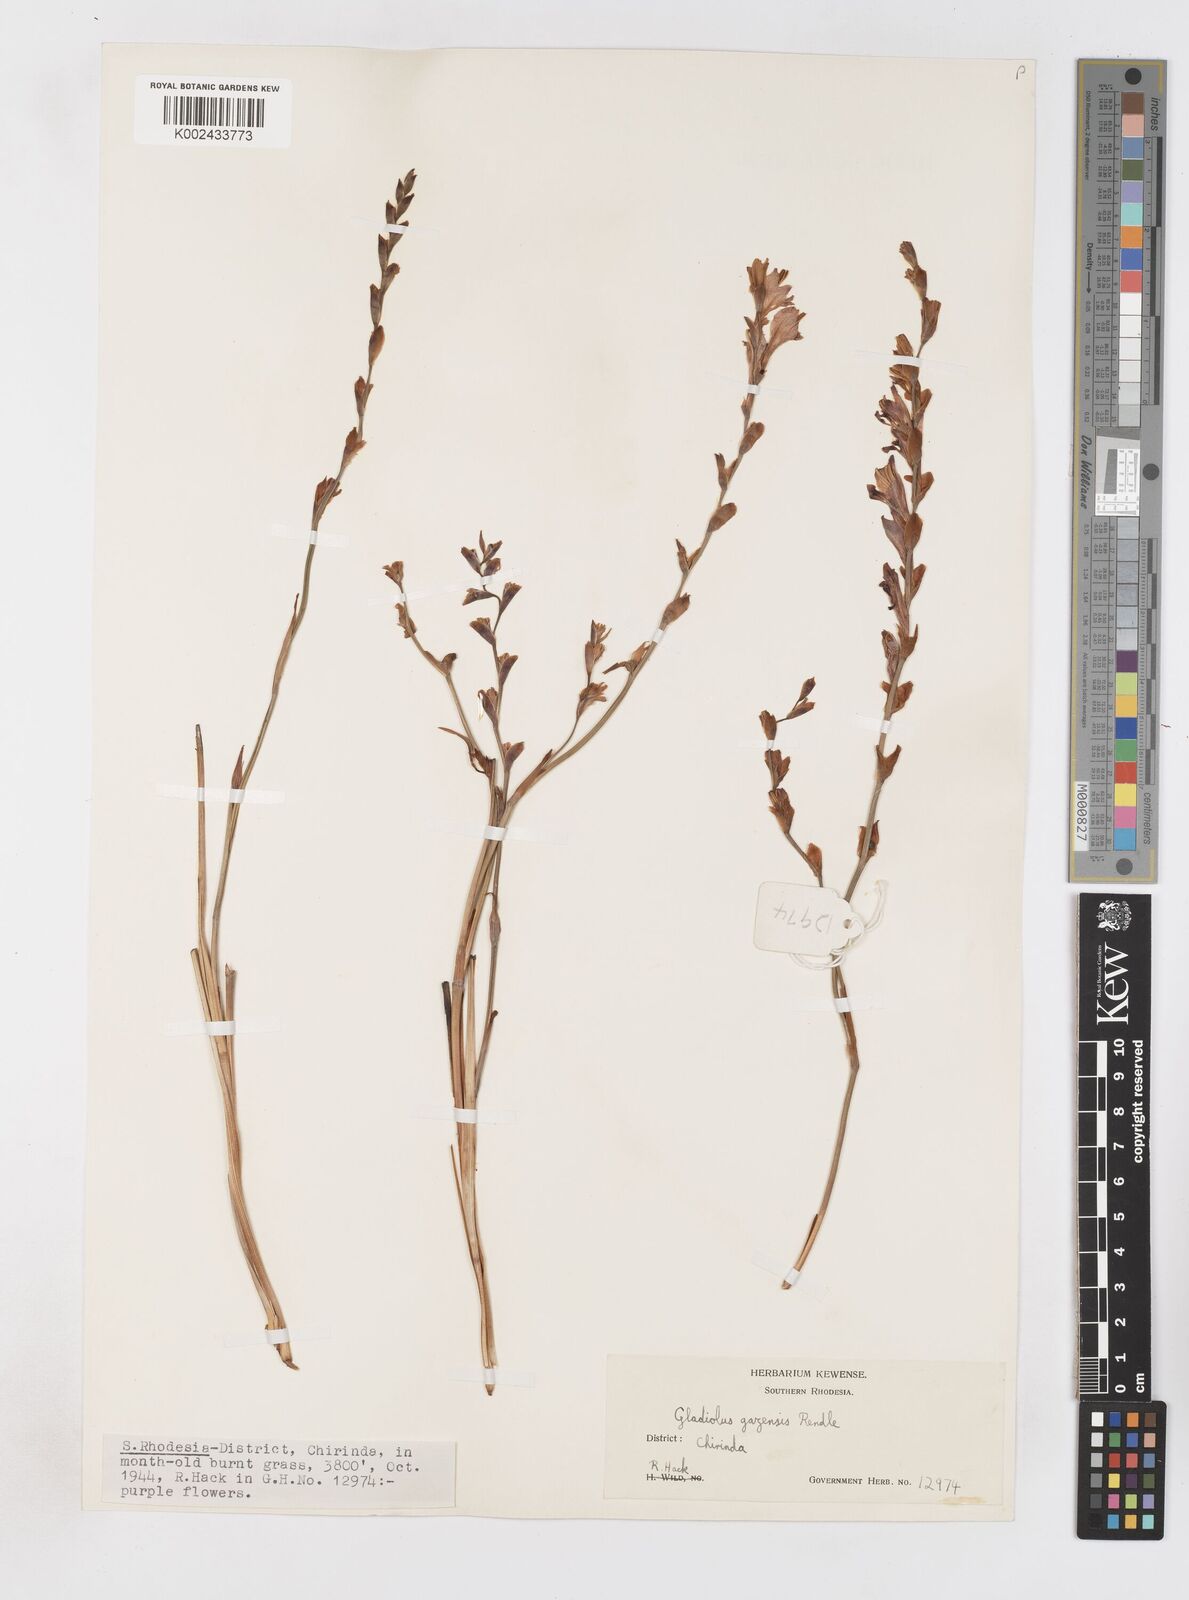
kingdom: Plantae
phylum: Tracheophyta
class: Liliopsida
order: Asparagales
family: Iridaceae
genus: Gladiolus
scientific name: Gladiolus crassifolius
